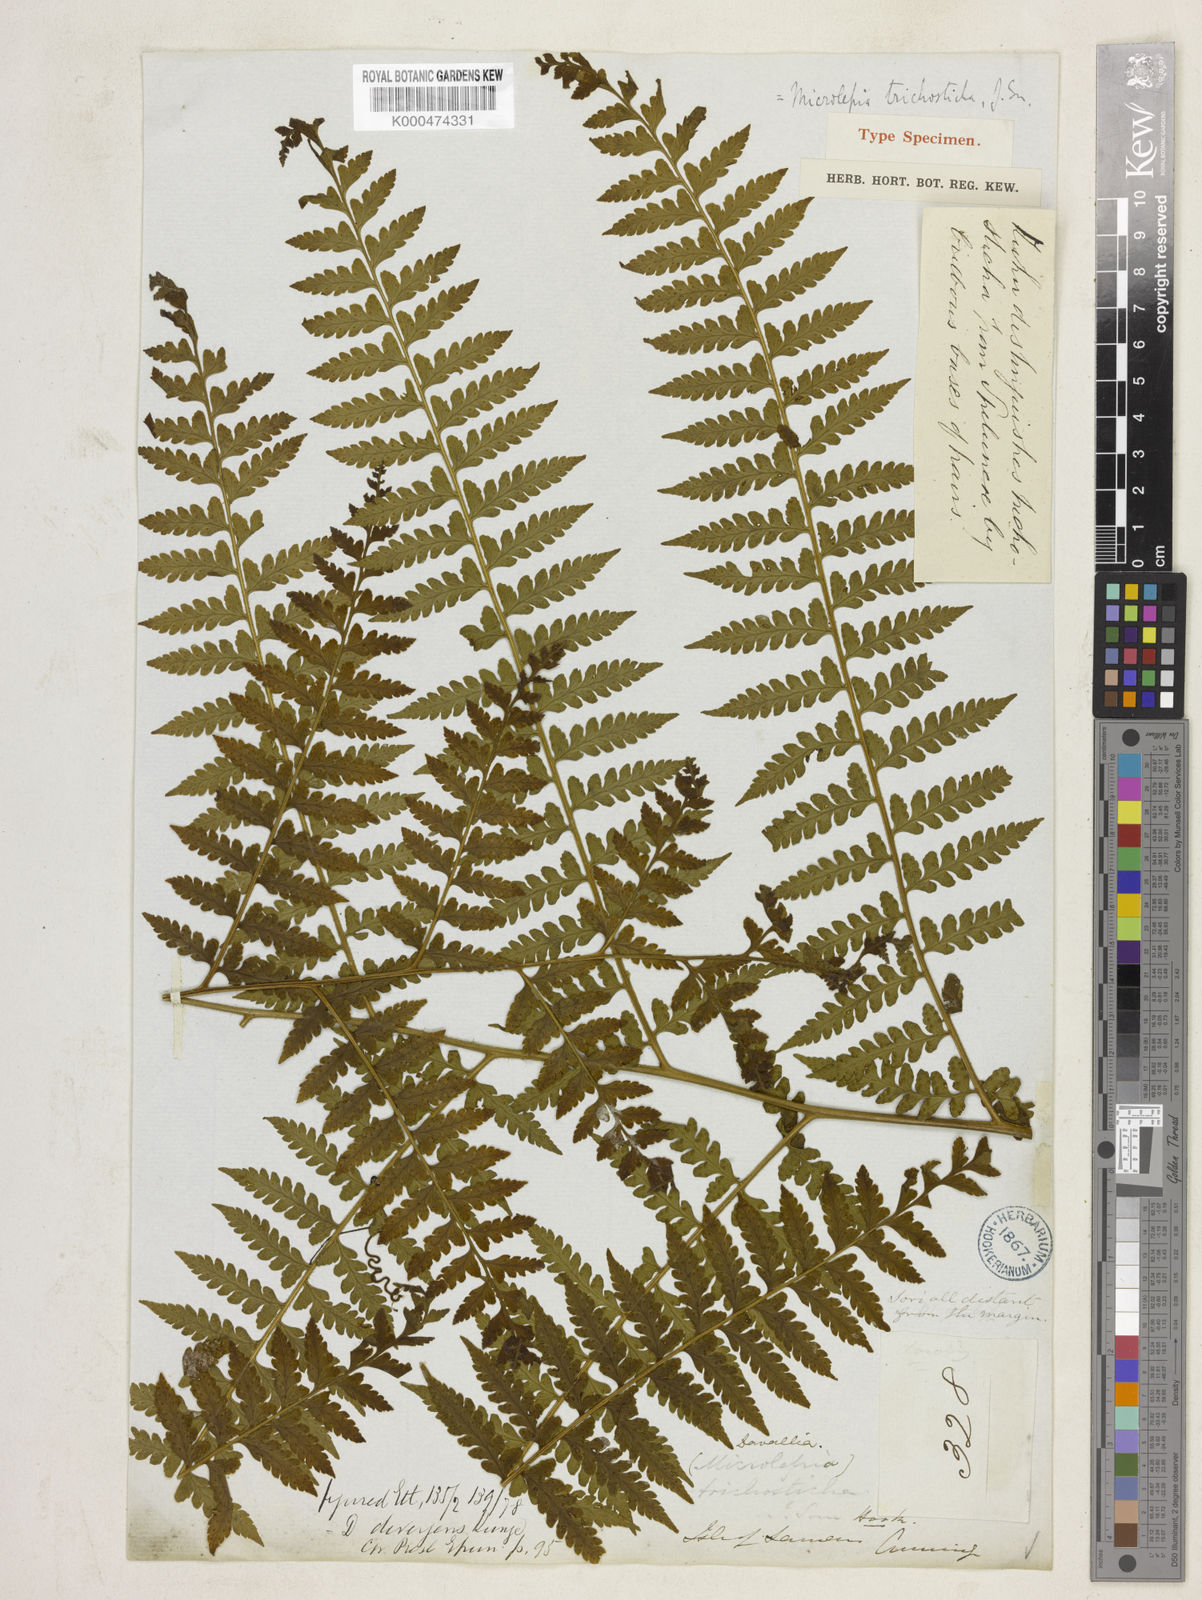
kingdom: Plantae
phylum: Tracheophyta
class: Polypodiopsida
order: Polypodiales
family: Dennstaedtiaceae
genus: Microlepia
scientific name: Microlepia speluncae
